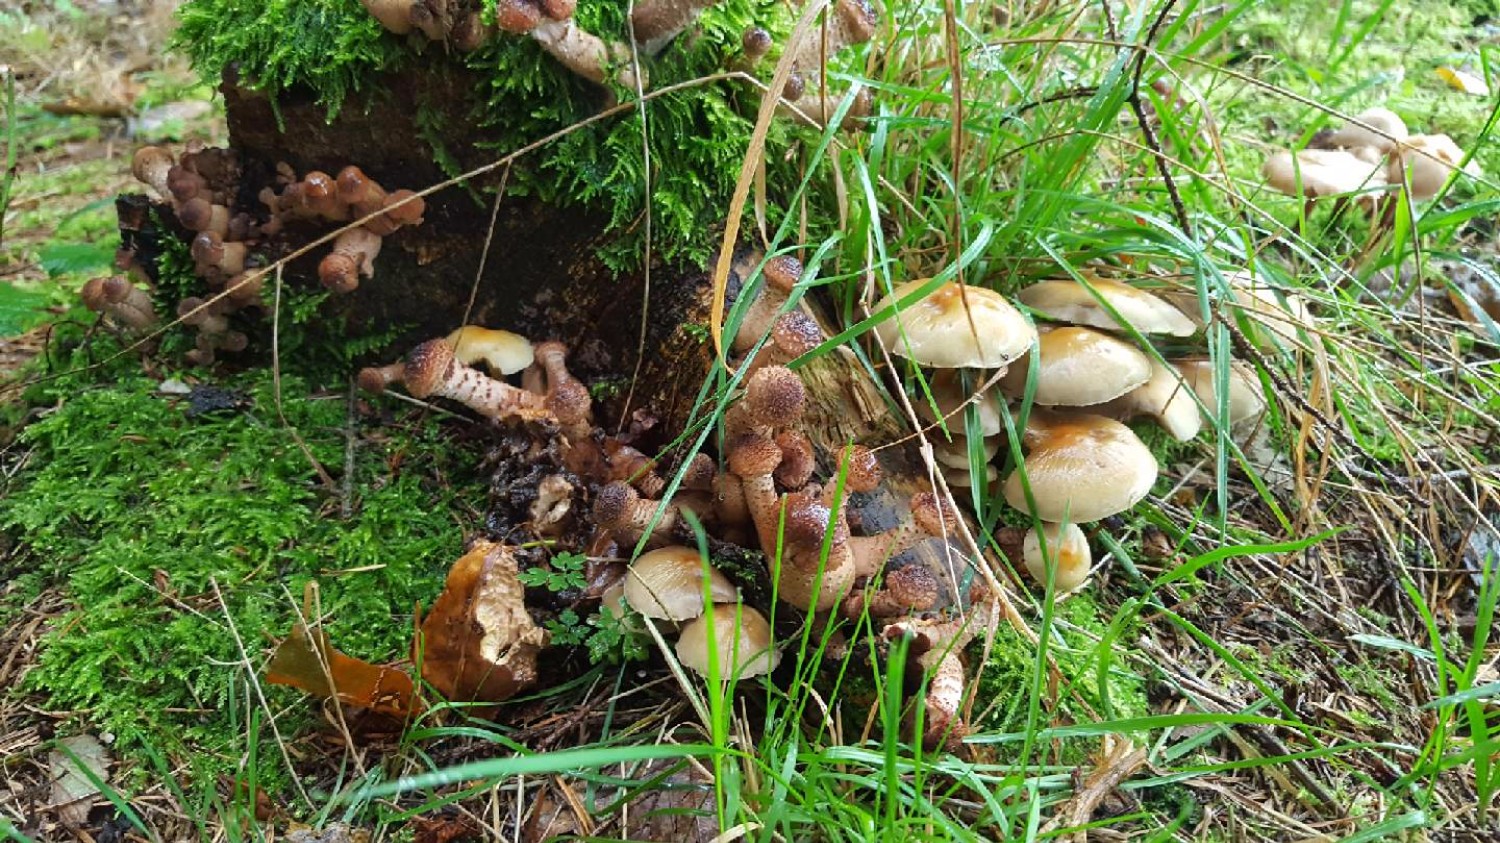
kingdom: Fungi
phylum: Basidiomycota
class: Agaricomycetes
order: Agaricales
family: Physalacriaceae
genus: Armillaria
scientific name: Armillaria ostoyae
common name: mørk honningsvamp
